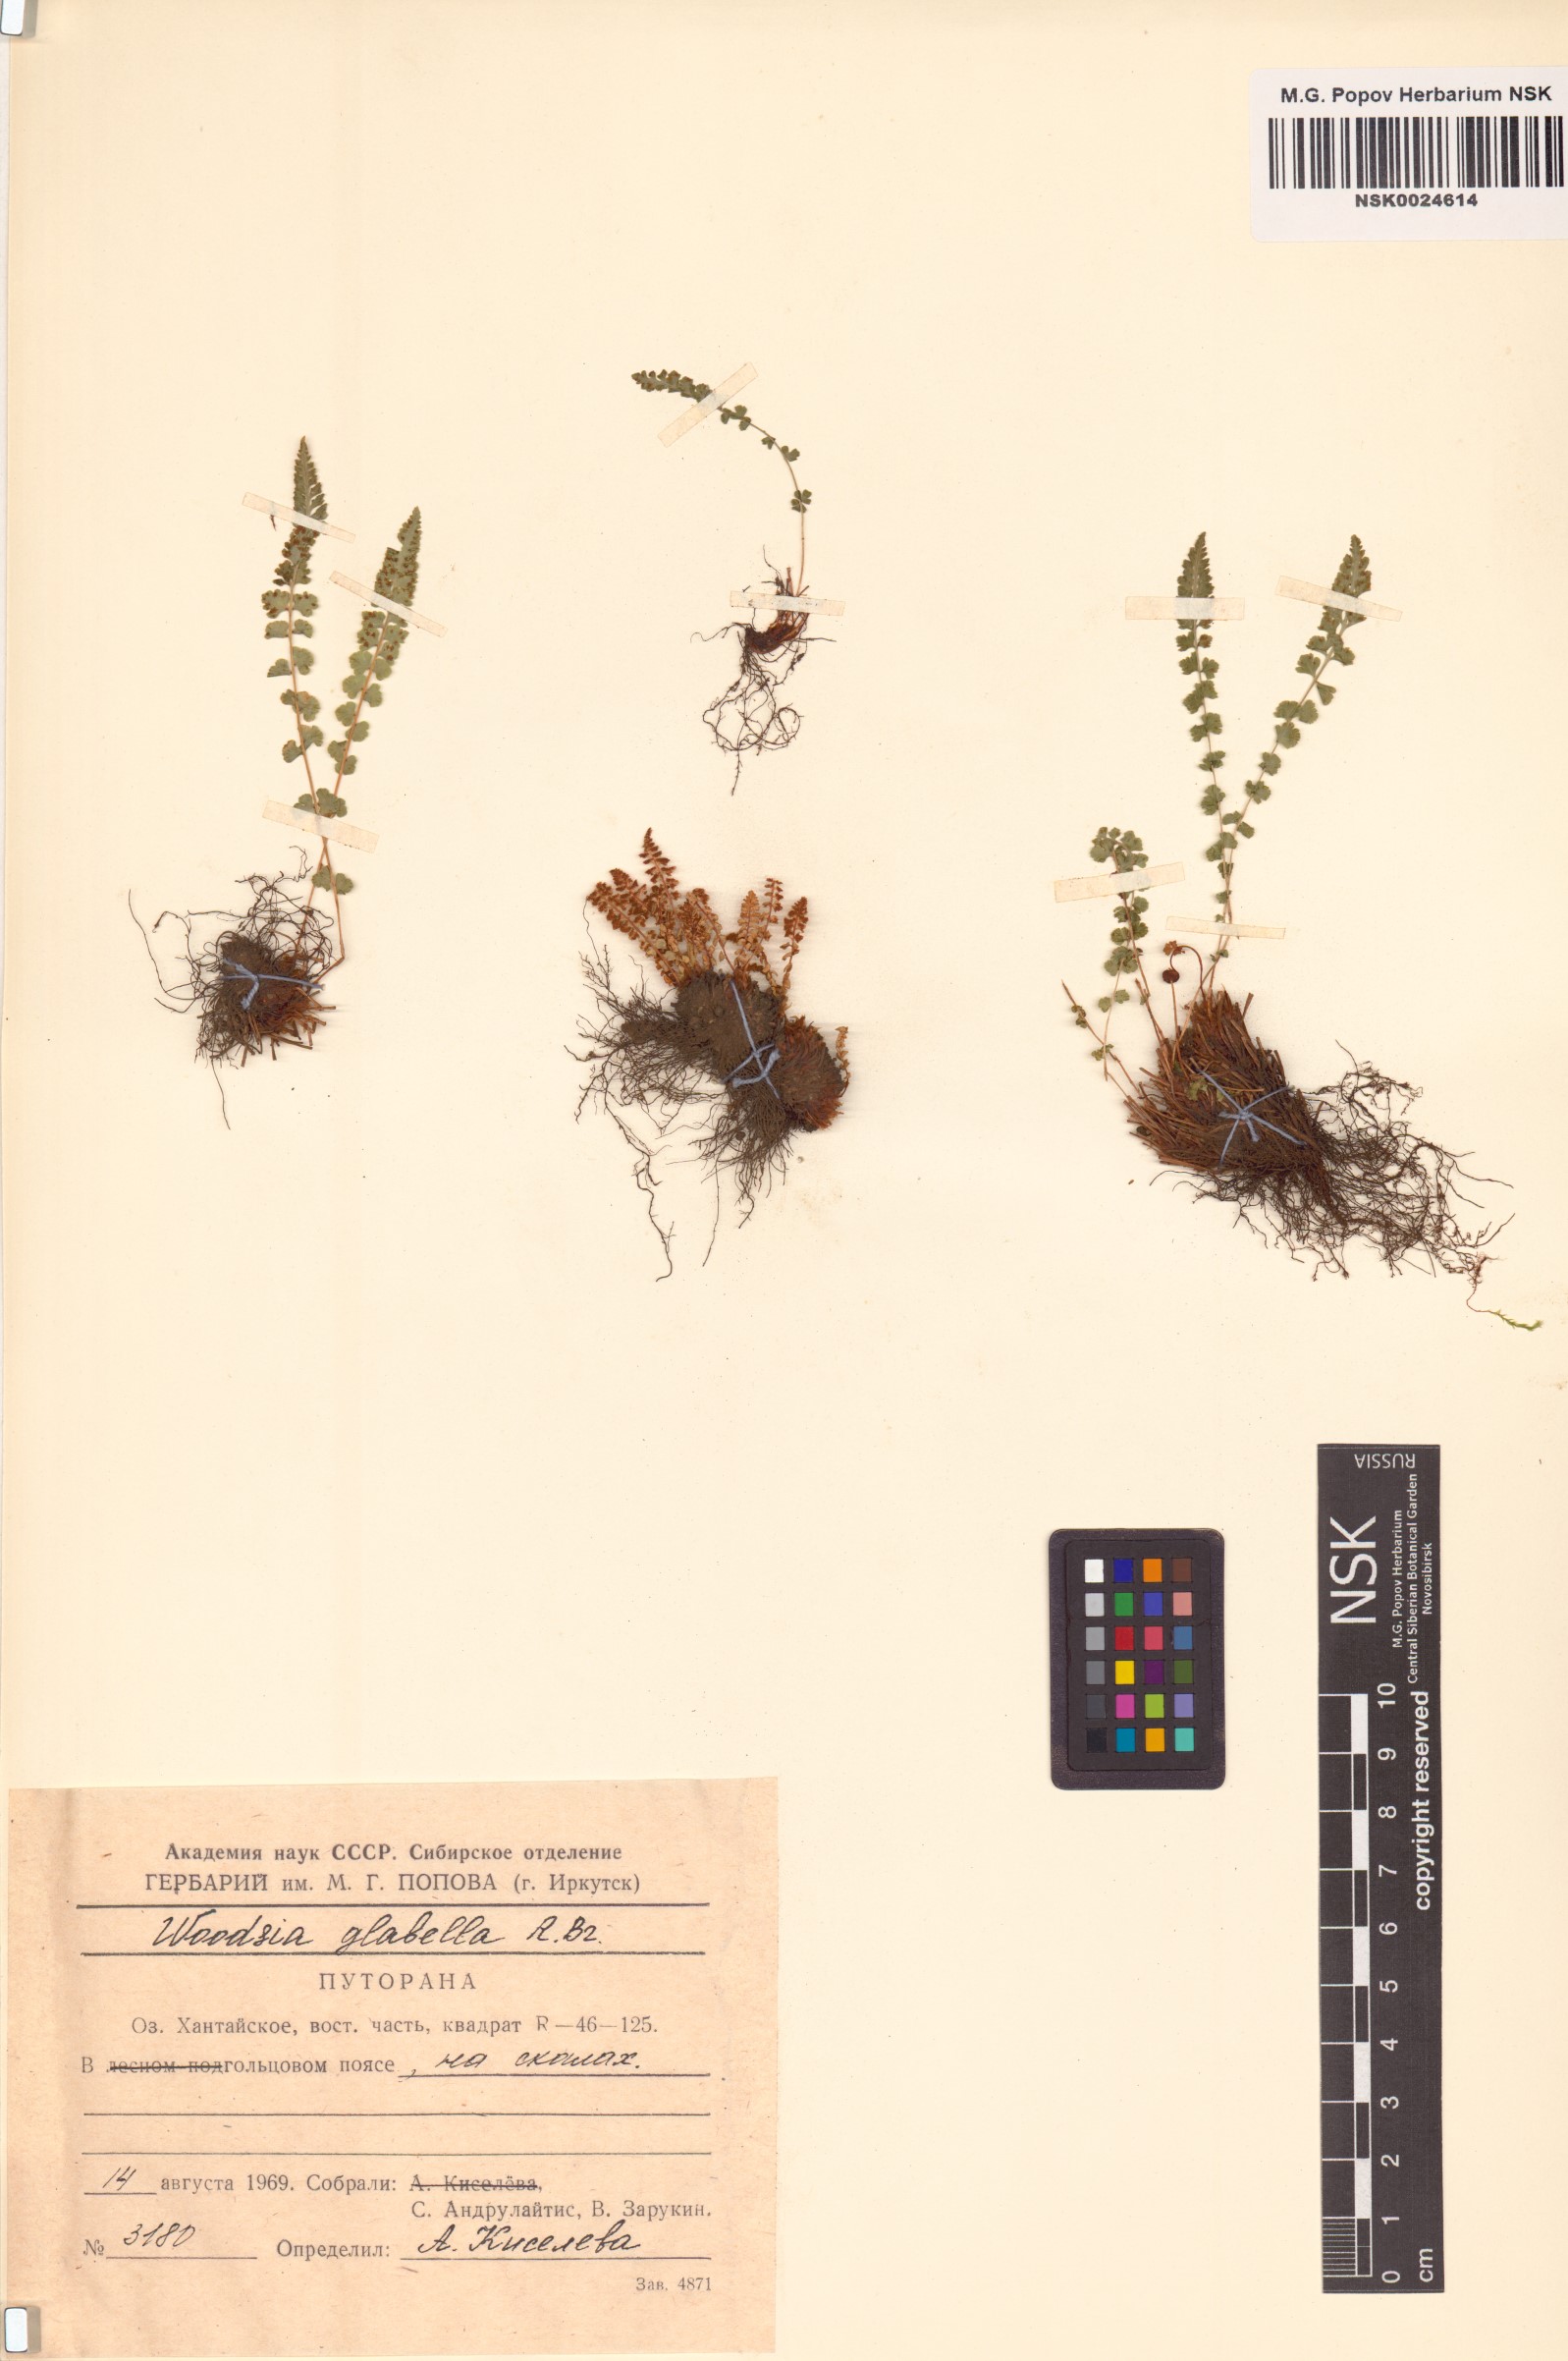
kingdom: Plantae
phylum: Tracheophyta
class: Polypodiopsida
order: Polypodiales
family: Woodsiaceae
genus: Woodsia
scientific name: Woodsia glabella
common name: Smooth woodsia
